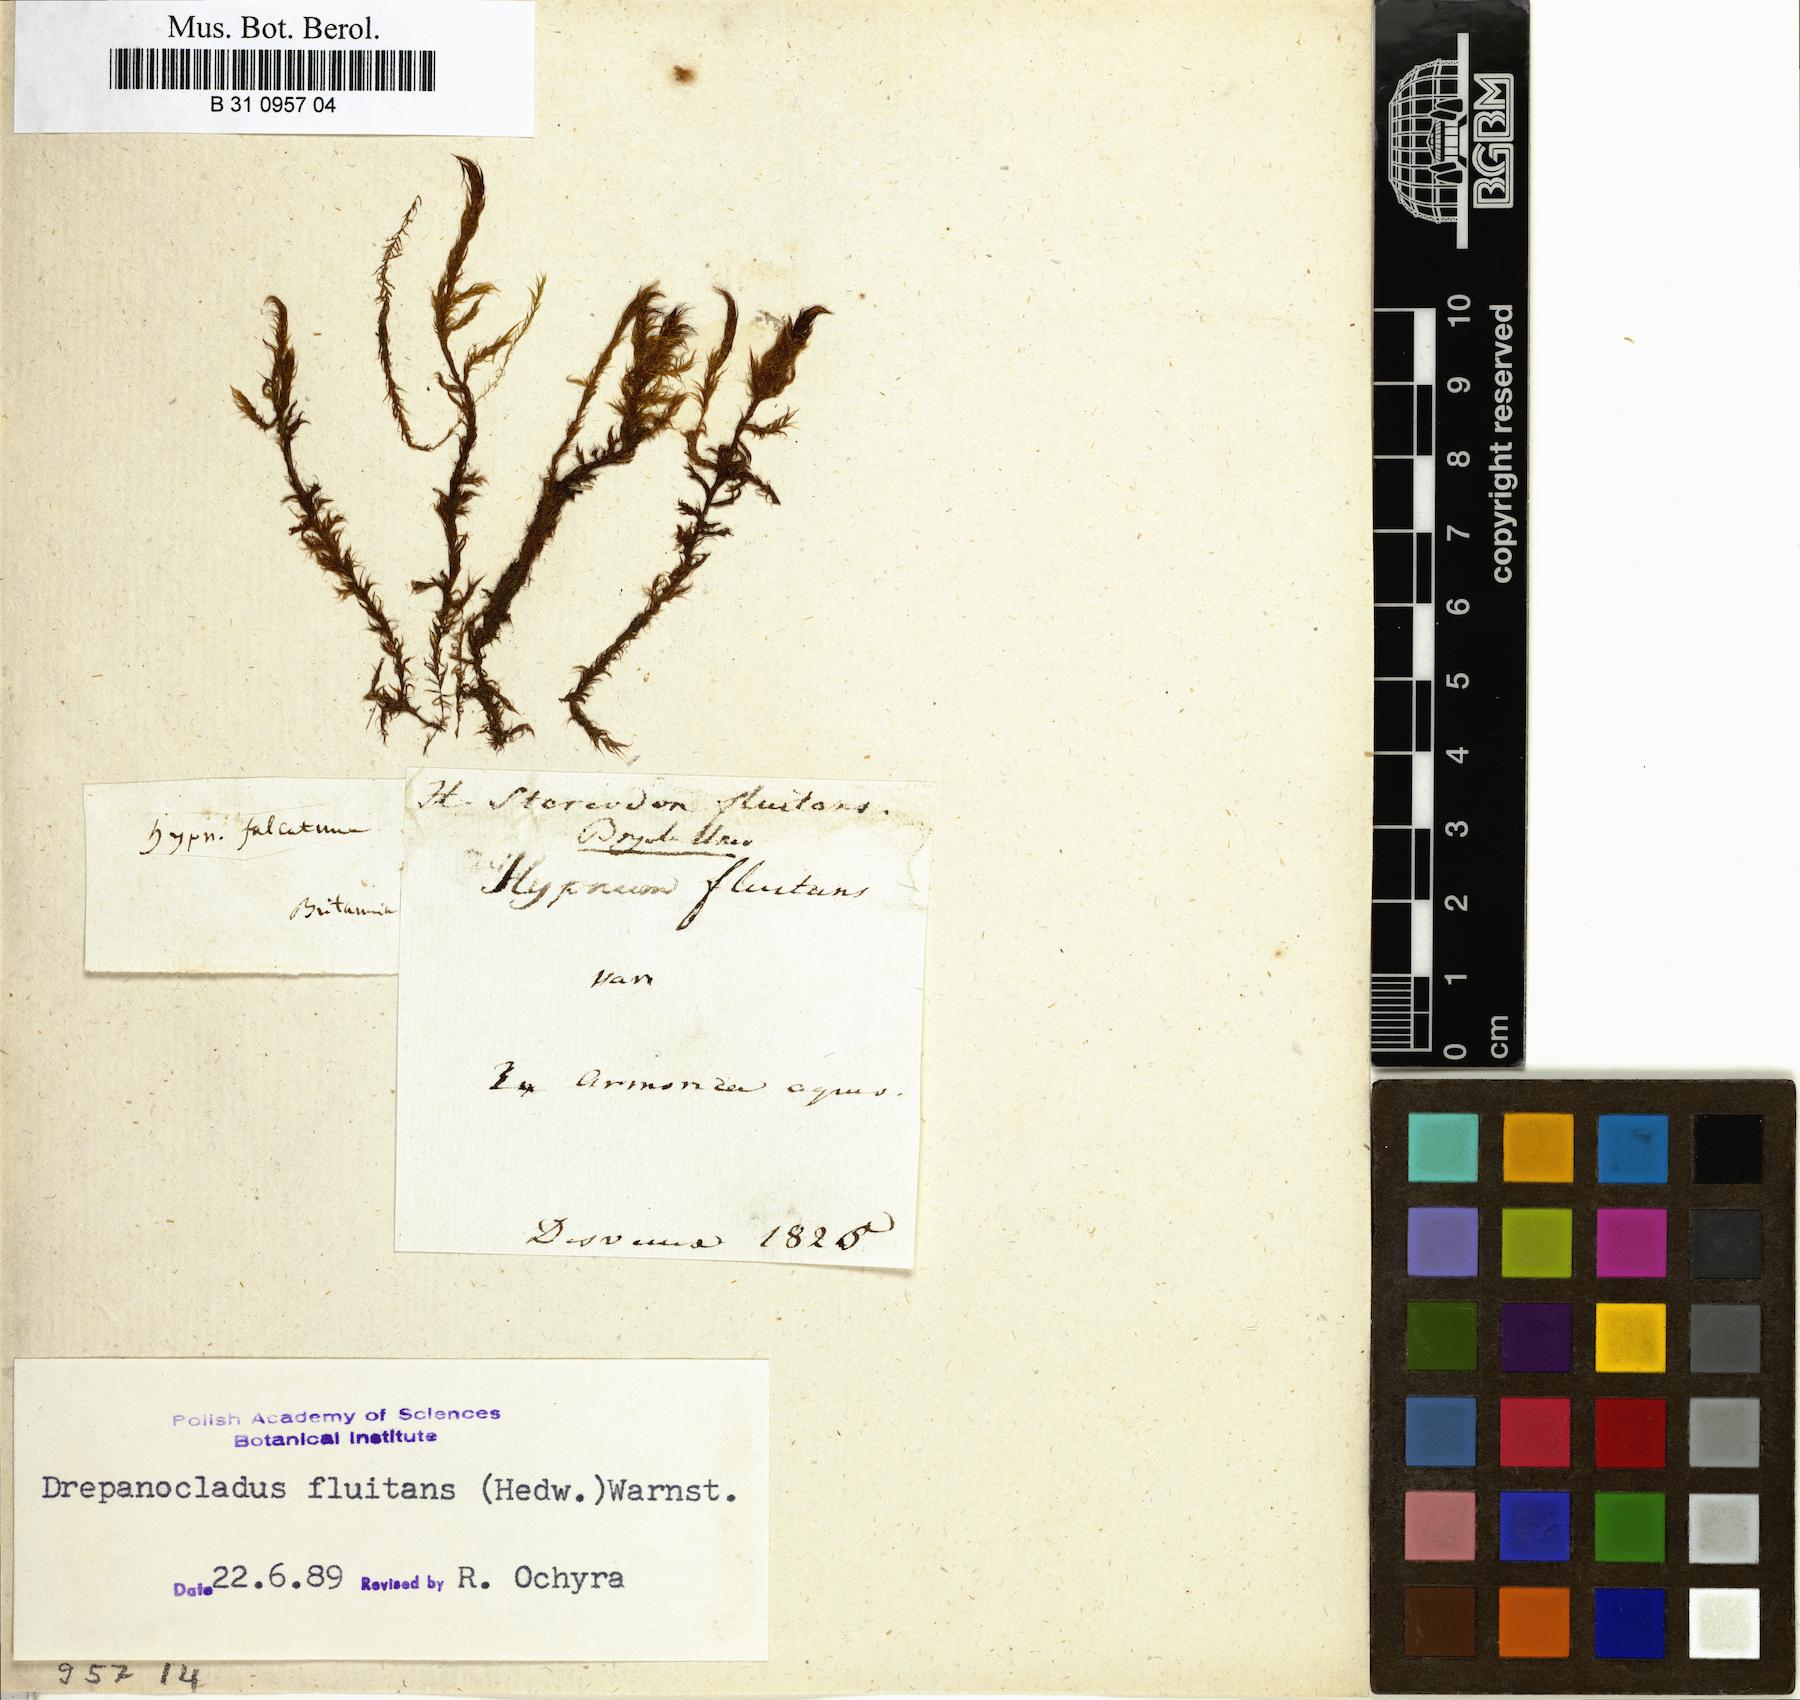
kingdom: Plantae
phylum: Bryophyta
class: Bryopsida
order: Hypnales
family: Calliergonaceae
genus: Warnstorfia
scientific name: Warnstorfia fluitans
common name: Floating hook moss
